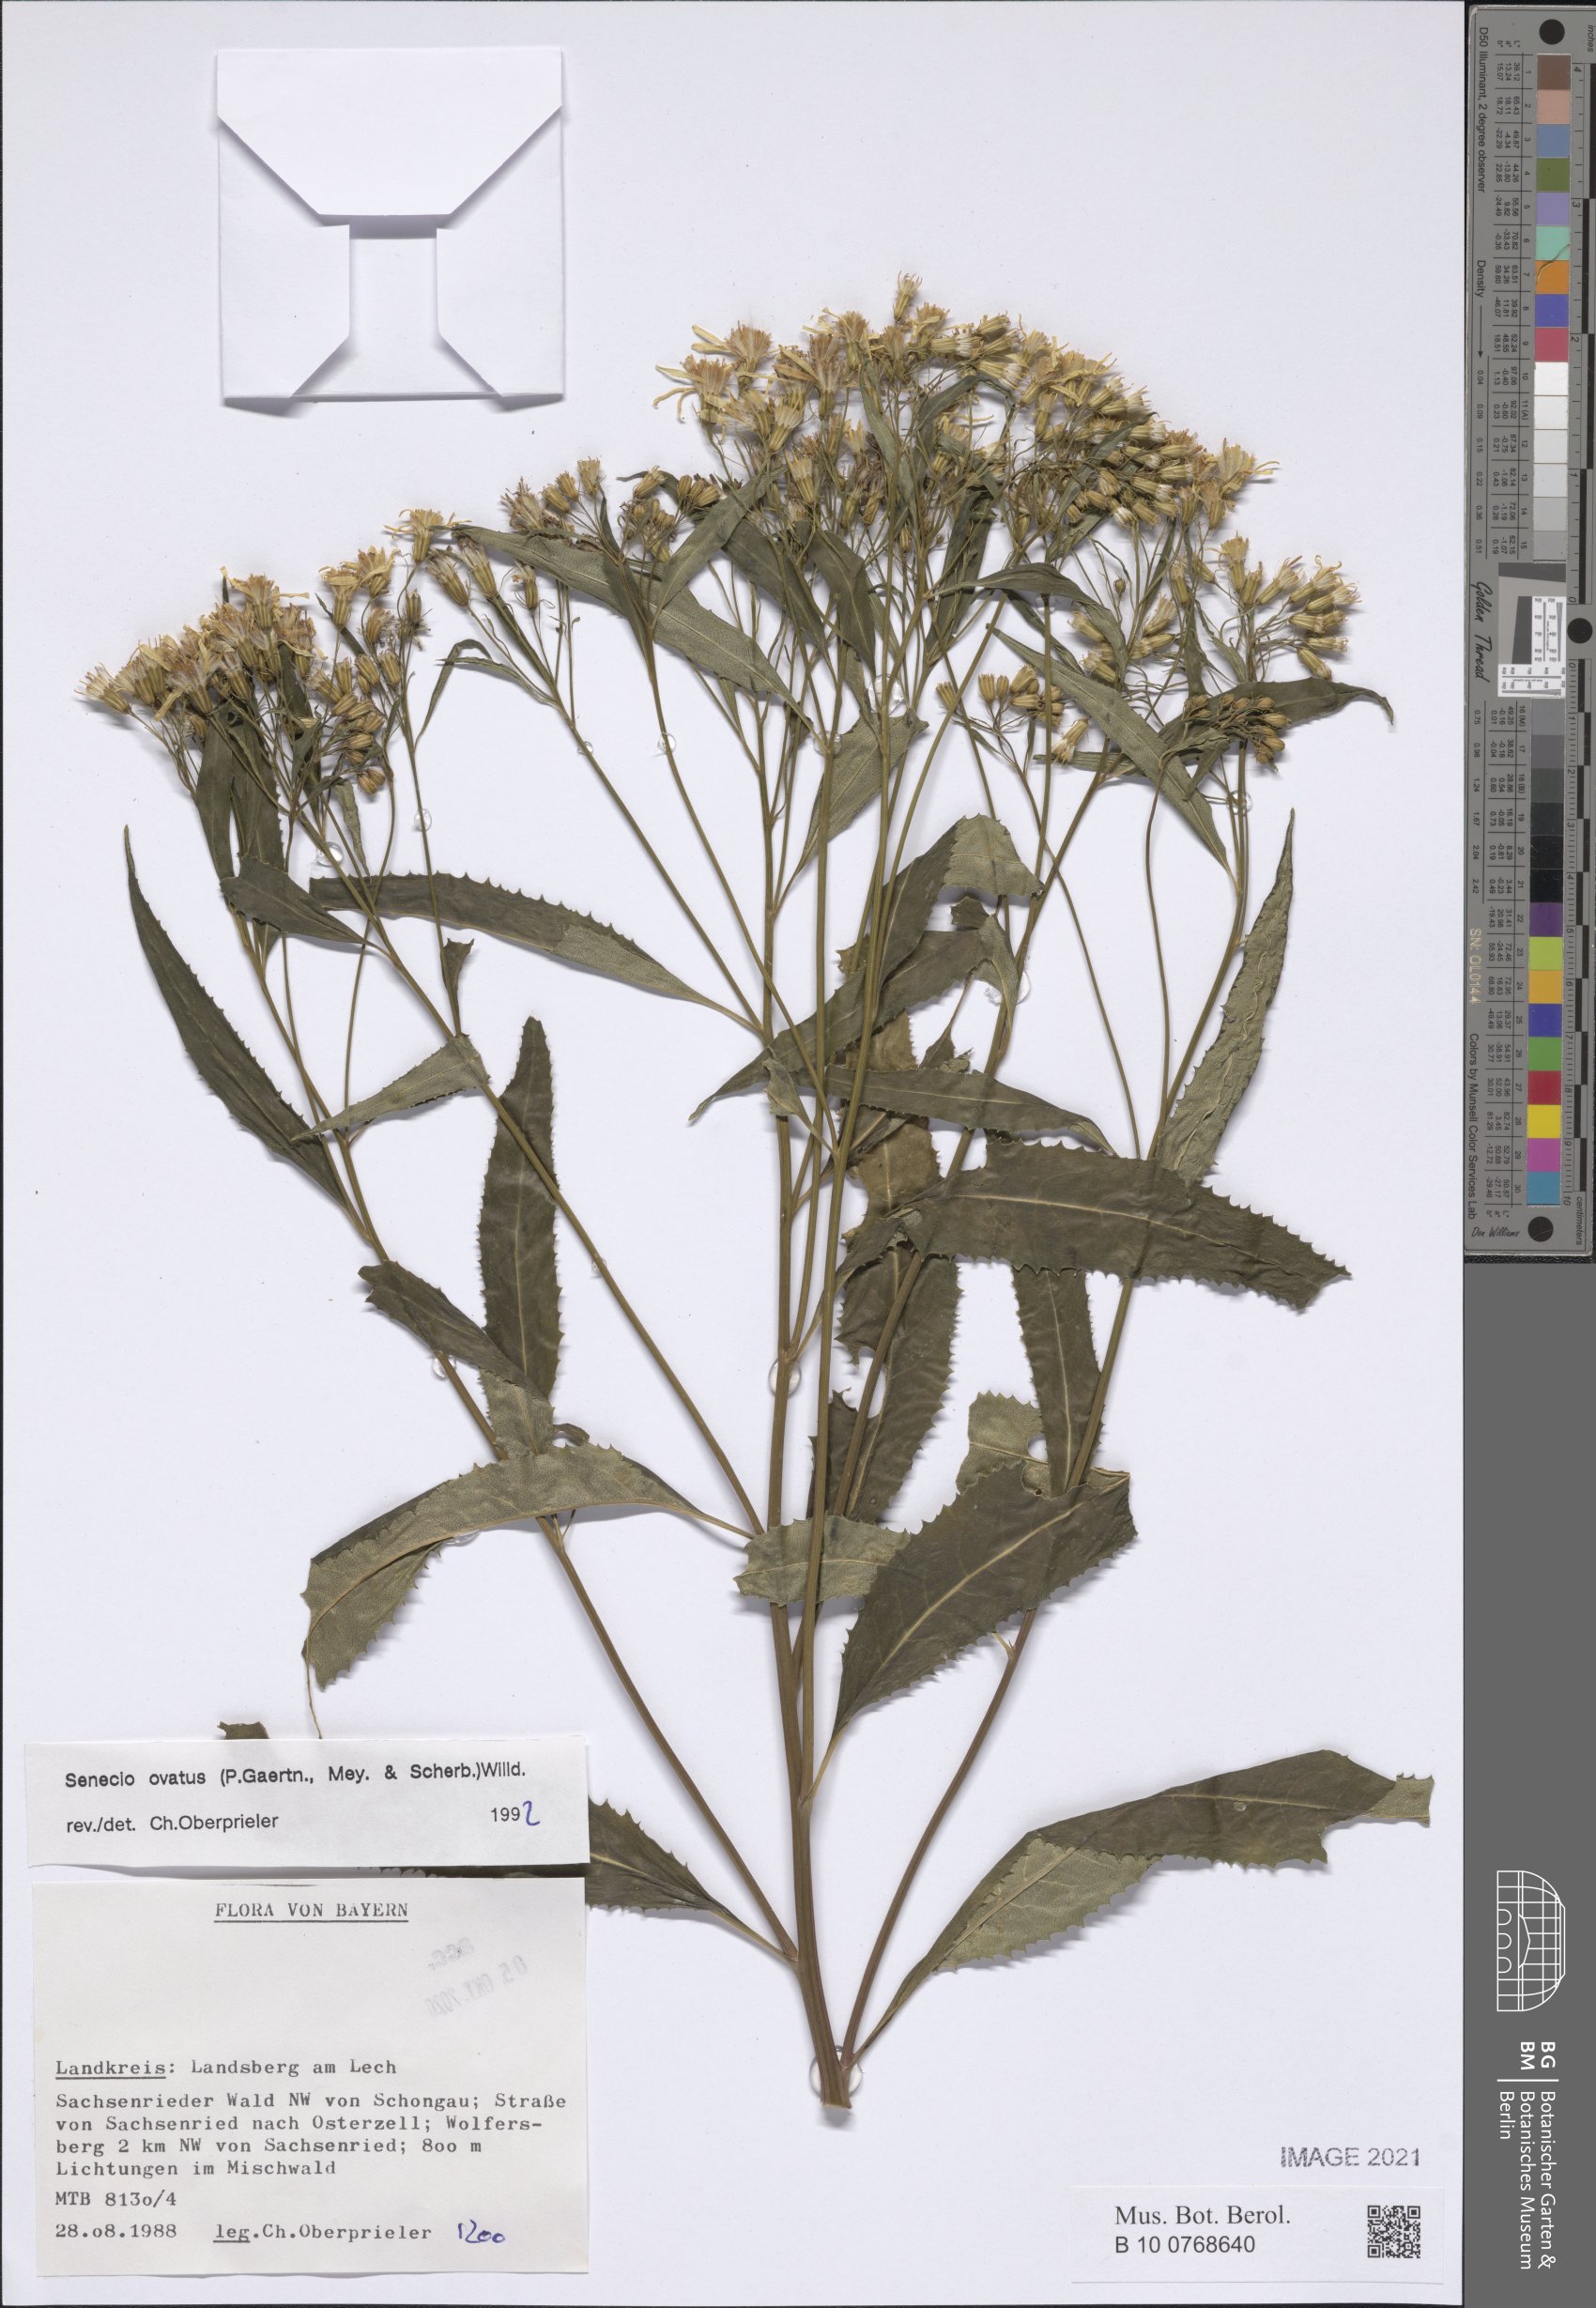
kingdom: Plantae
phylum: Tracheophyta
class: Magnoliopsida
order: Asterales
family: Asteraceae
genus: Senecio
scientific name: Senecio ovatus
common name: Wood ragwort
